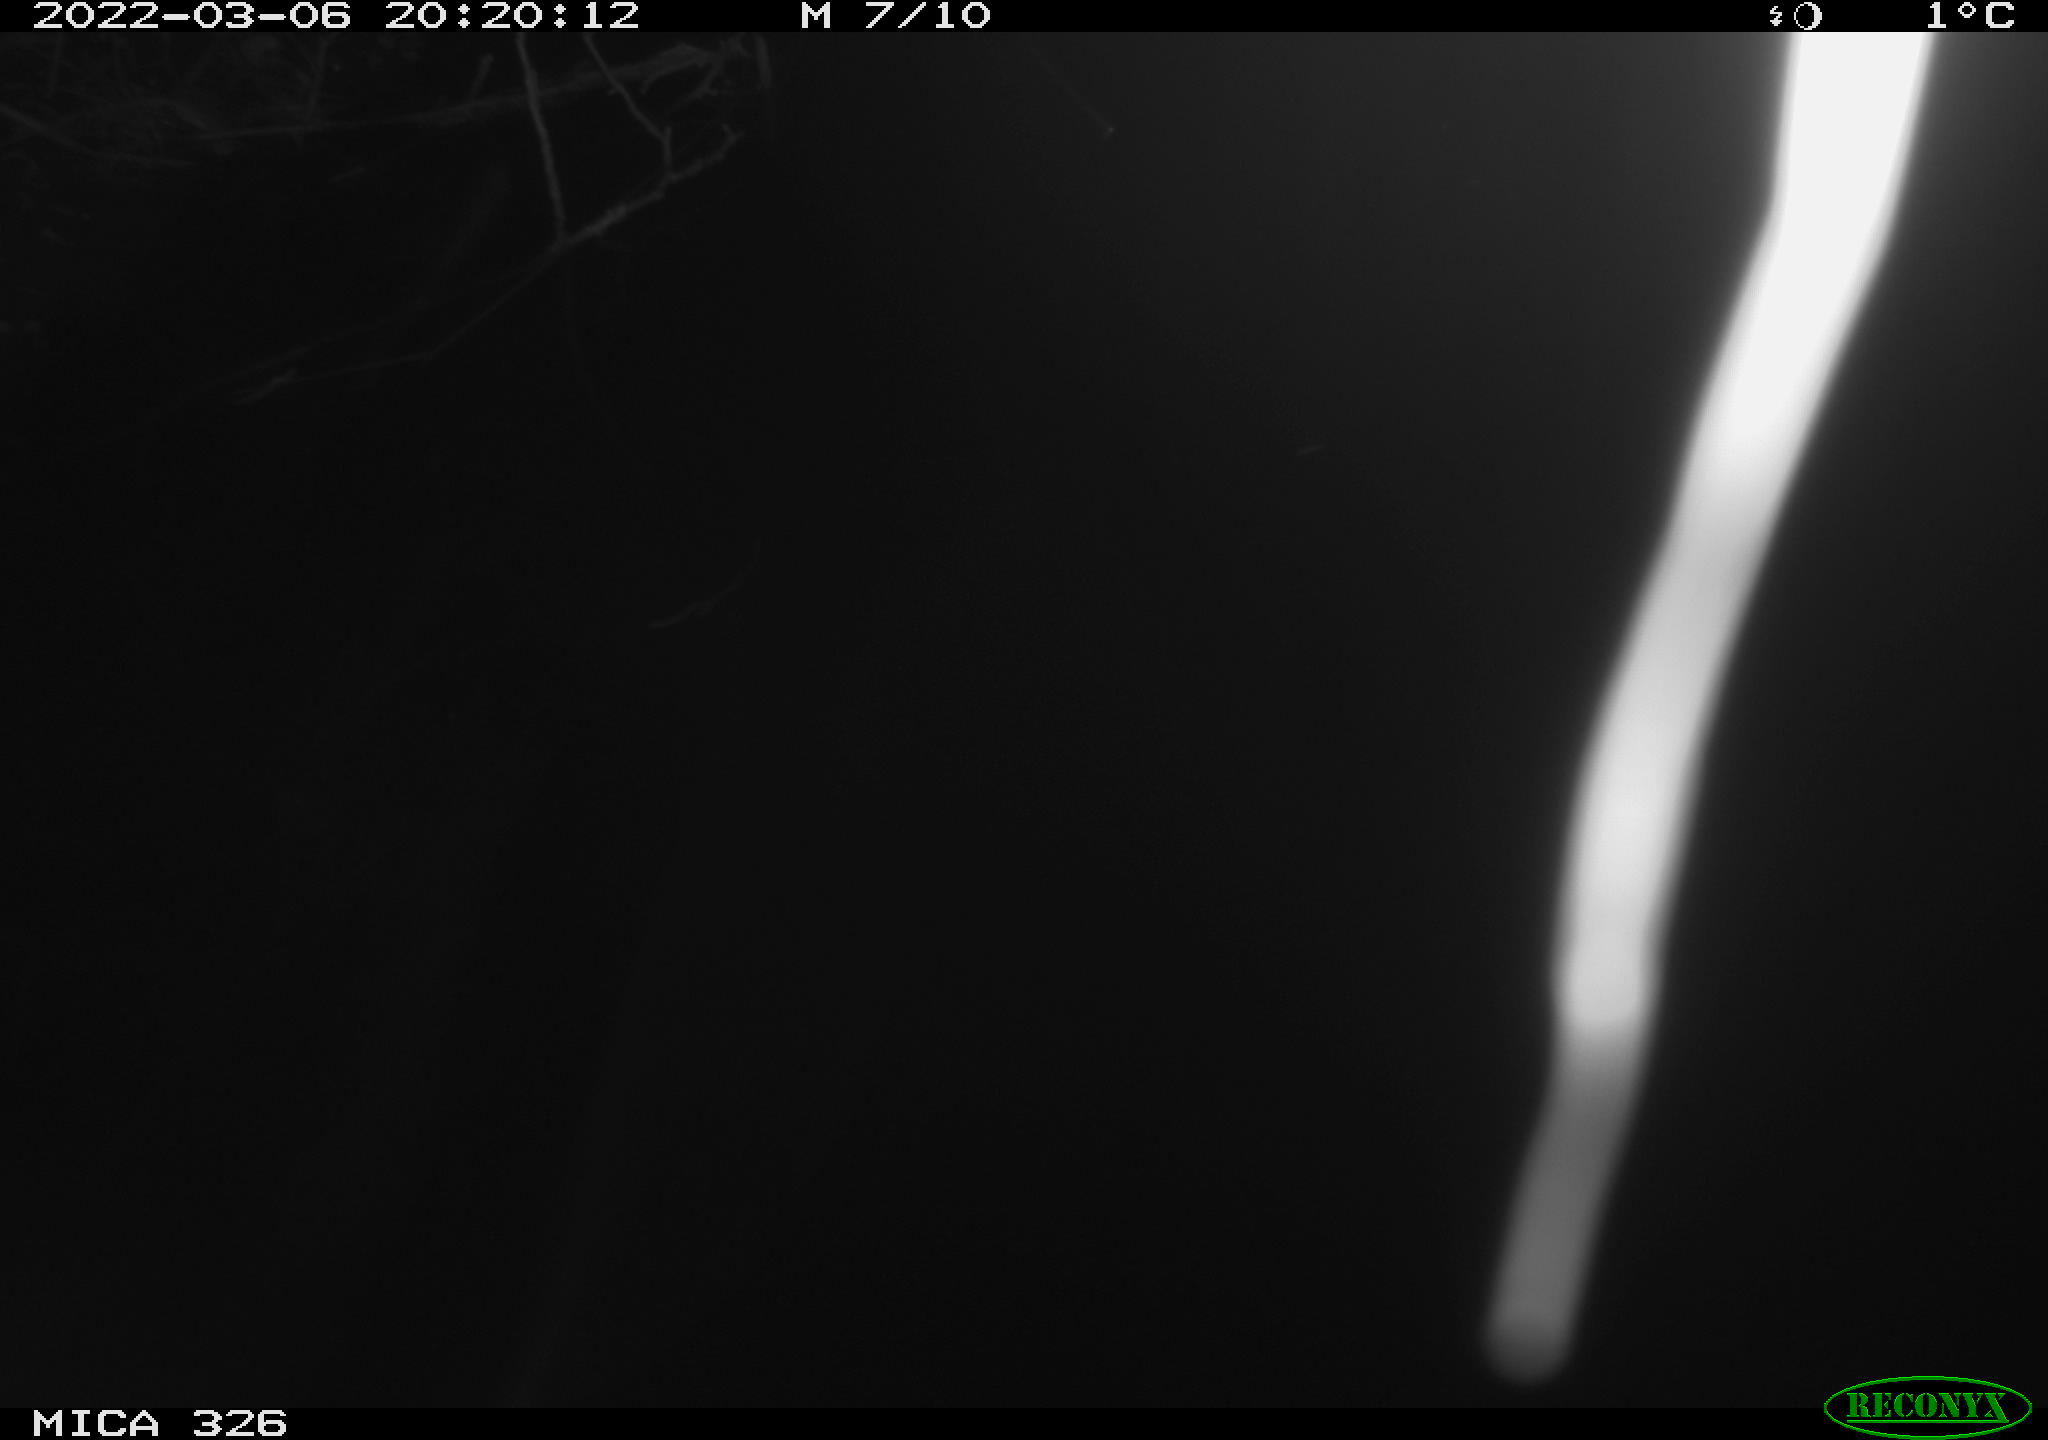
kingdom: Animalia
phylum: Chordata
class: Mammalia
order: Rodentia
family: Cricetidae
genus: Ondatra
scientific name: Ondatra zibethicus
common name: Muskrat
